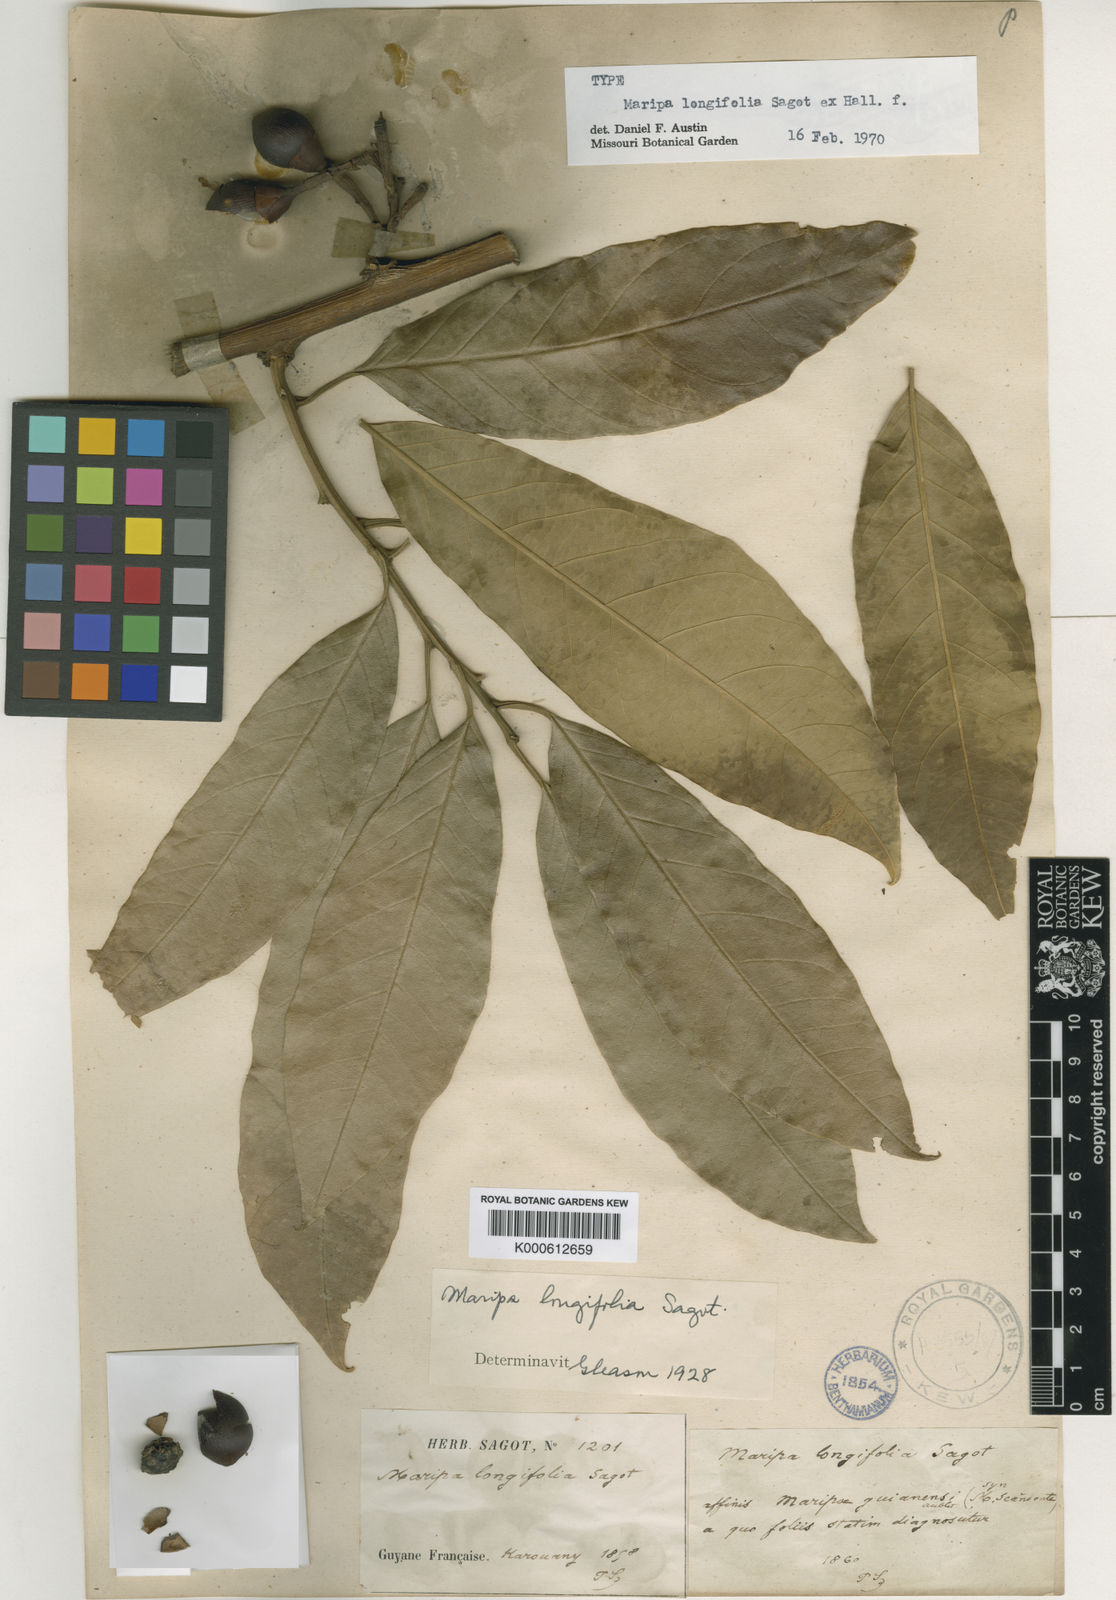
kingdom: Plantae
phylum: Tracheophyta
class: Magnoliopsida
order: Solanales
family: Convolvulaceae
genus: Maripa
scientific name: Maripa longifolia
